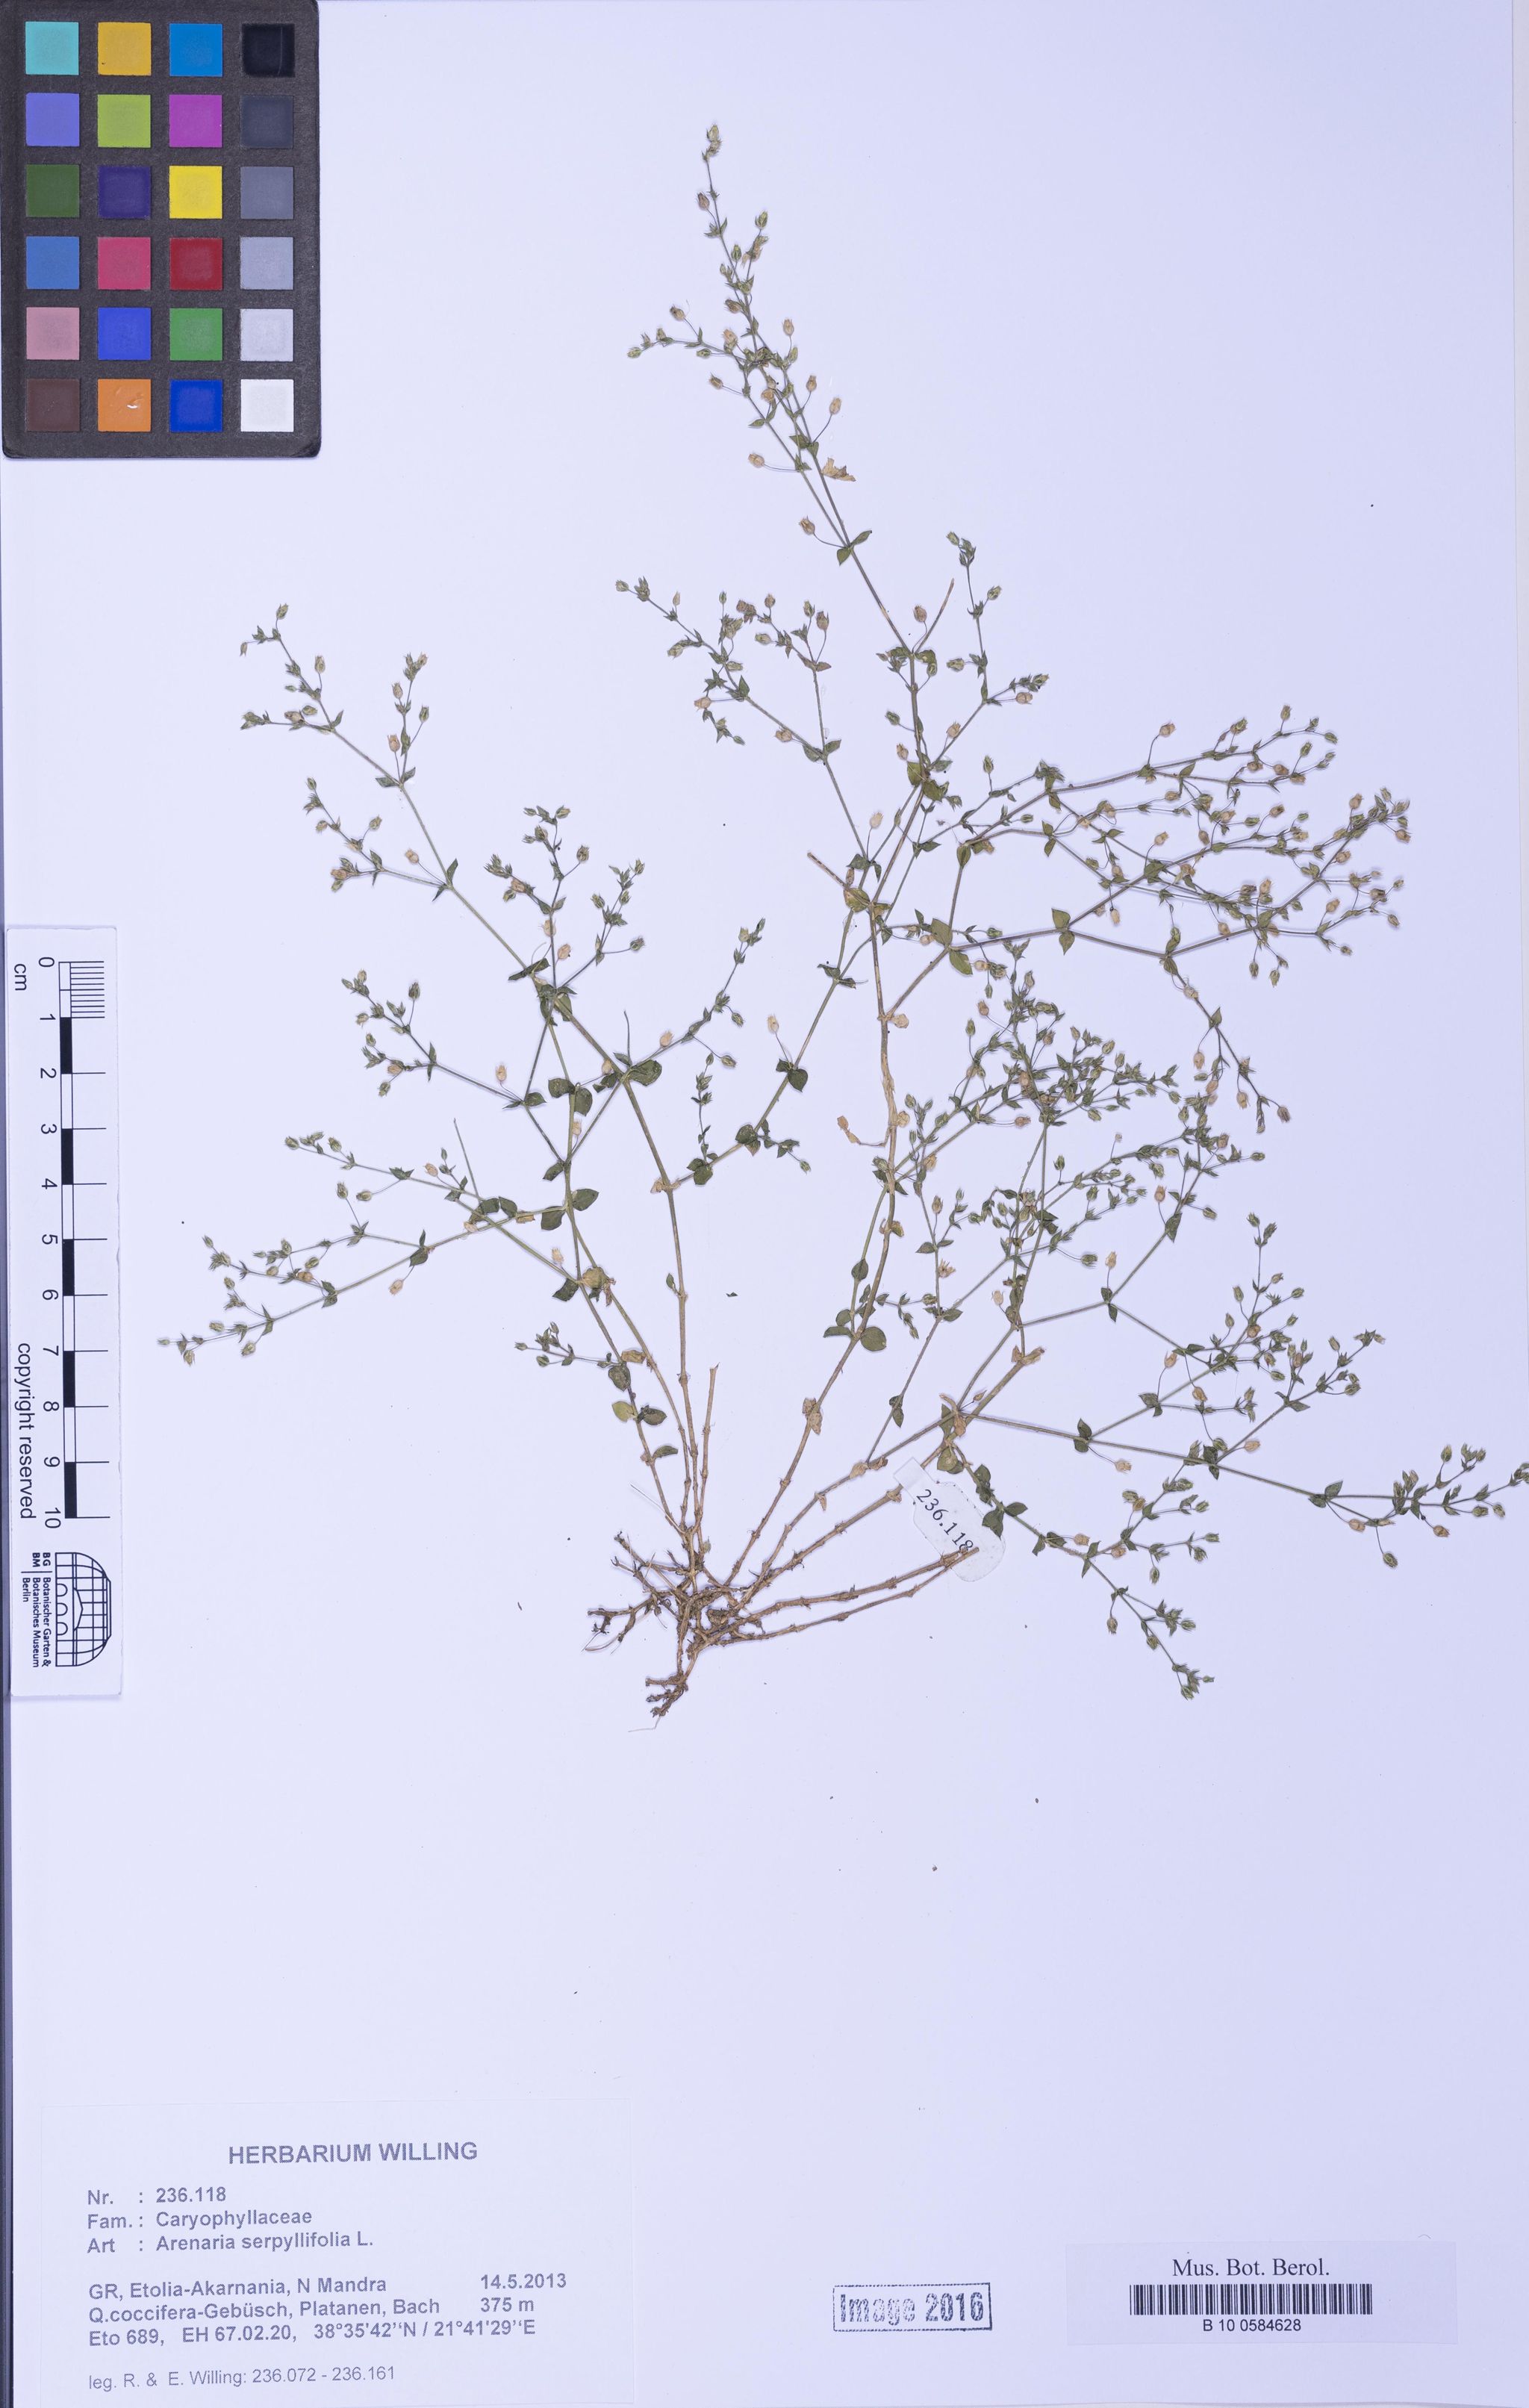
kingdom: Plantae
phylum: Tracheophyta
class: Magnoliopsida
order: Caryophyllales
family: Caryophyllaceae
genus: Arenaria
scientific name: Arenaria serpyllifolia
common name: Thyme-leaved sandwort
